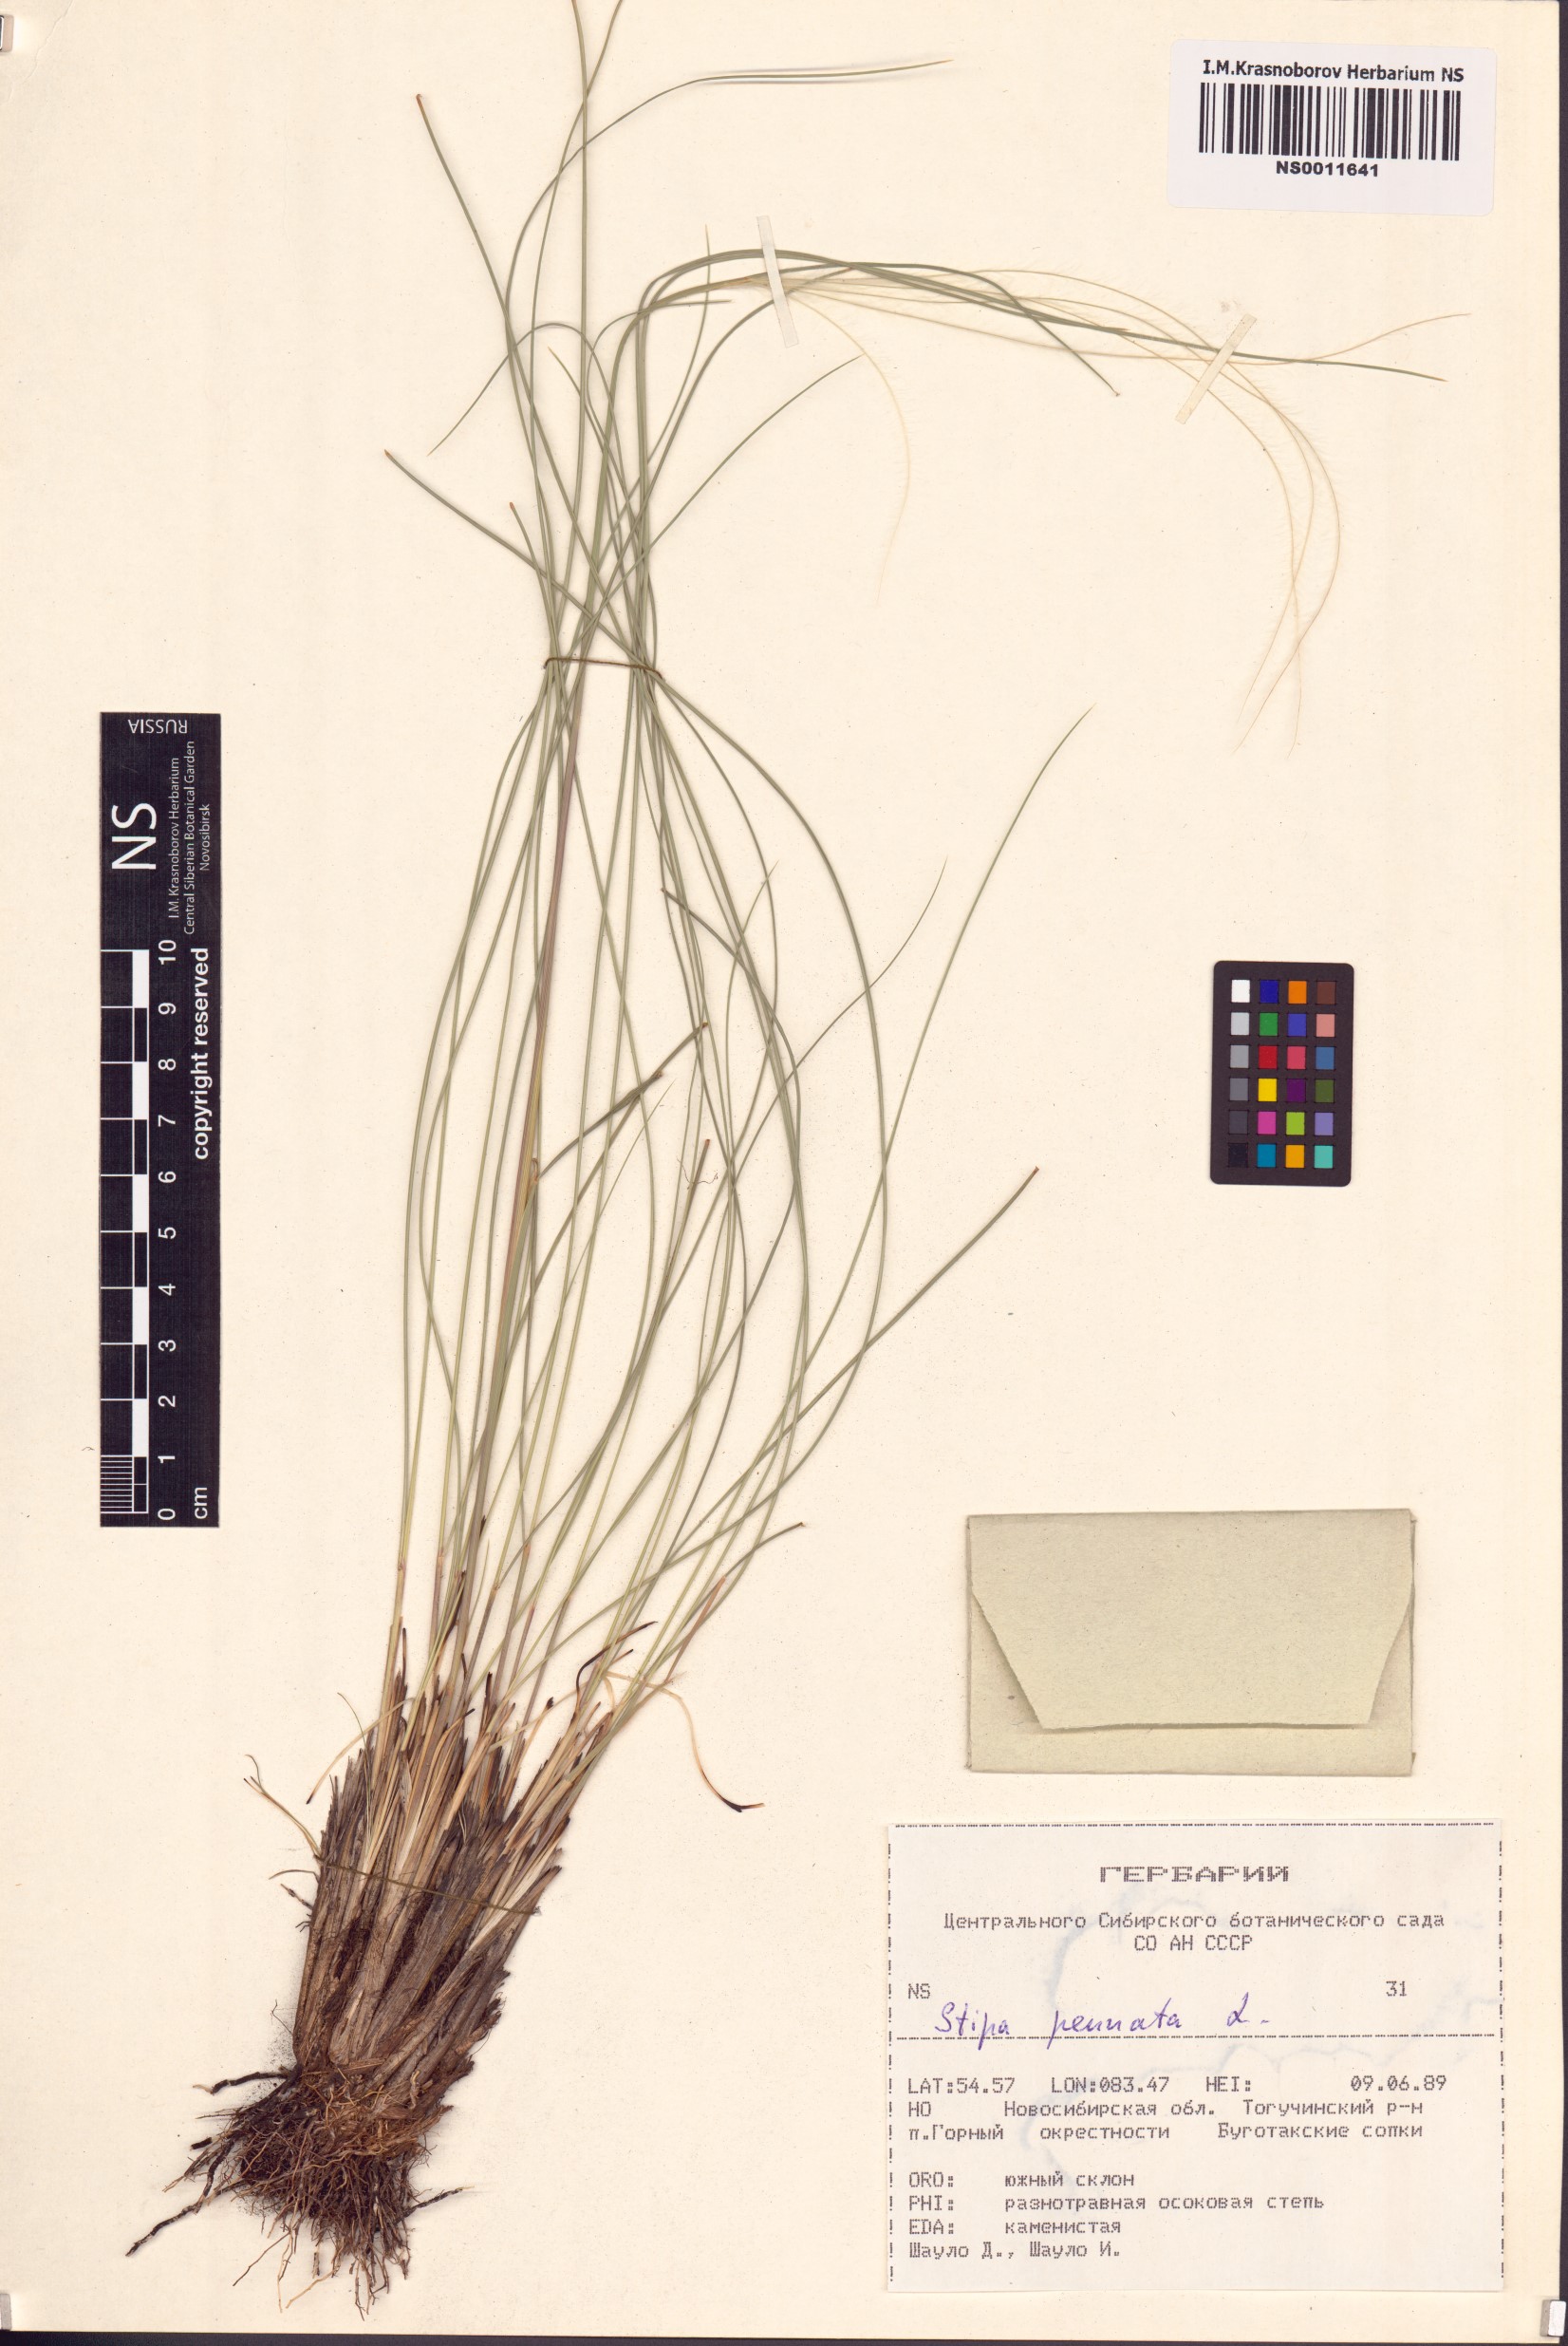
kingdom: Plantae
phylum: Tracheophyta
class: Liliopsida
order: Poales
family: Poaceae
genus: Stipa
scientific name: Stipa pennata
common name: European feather grass
